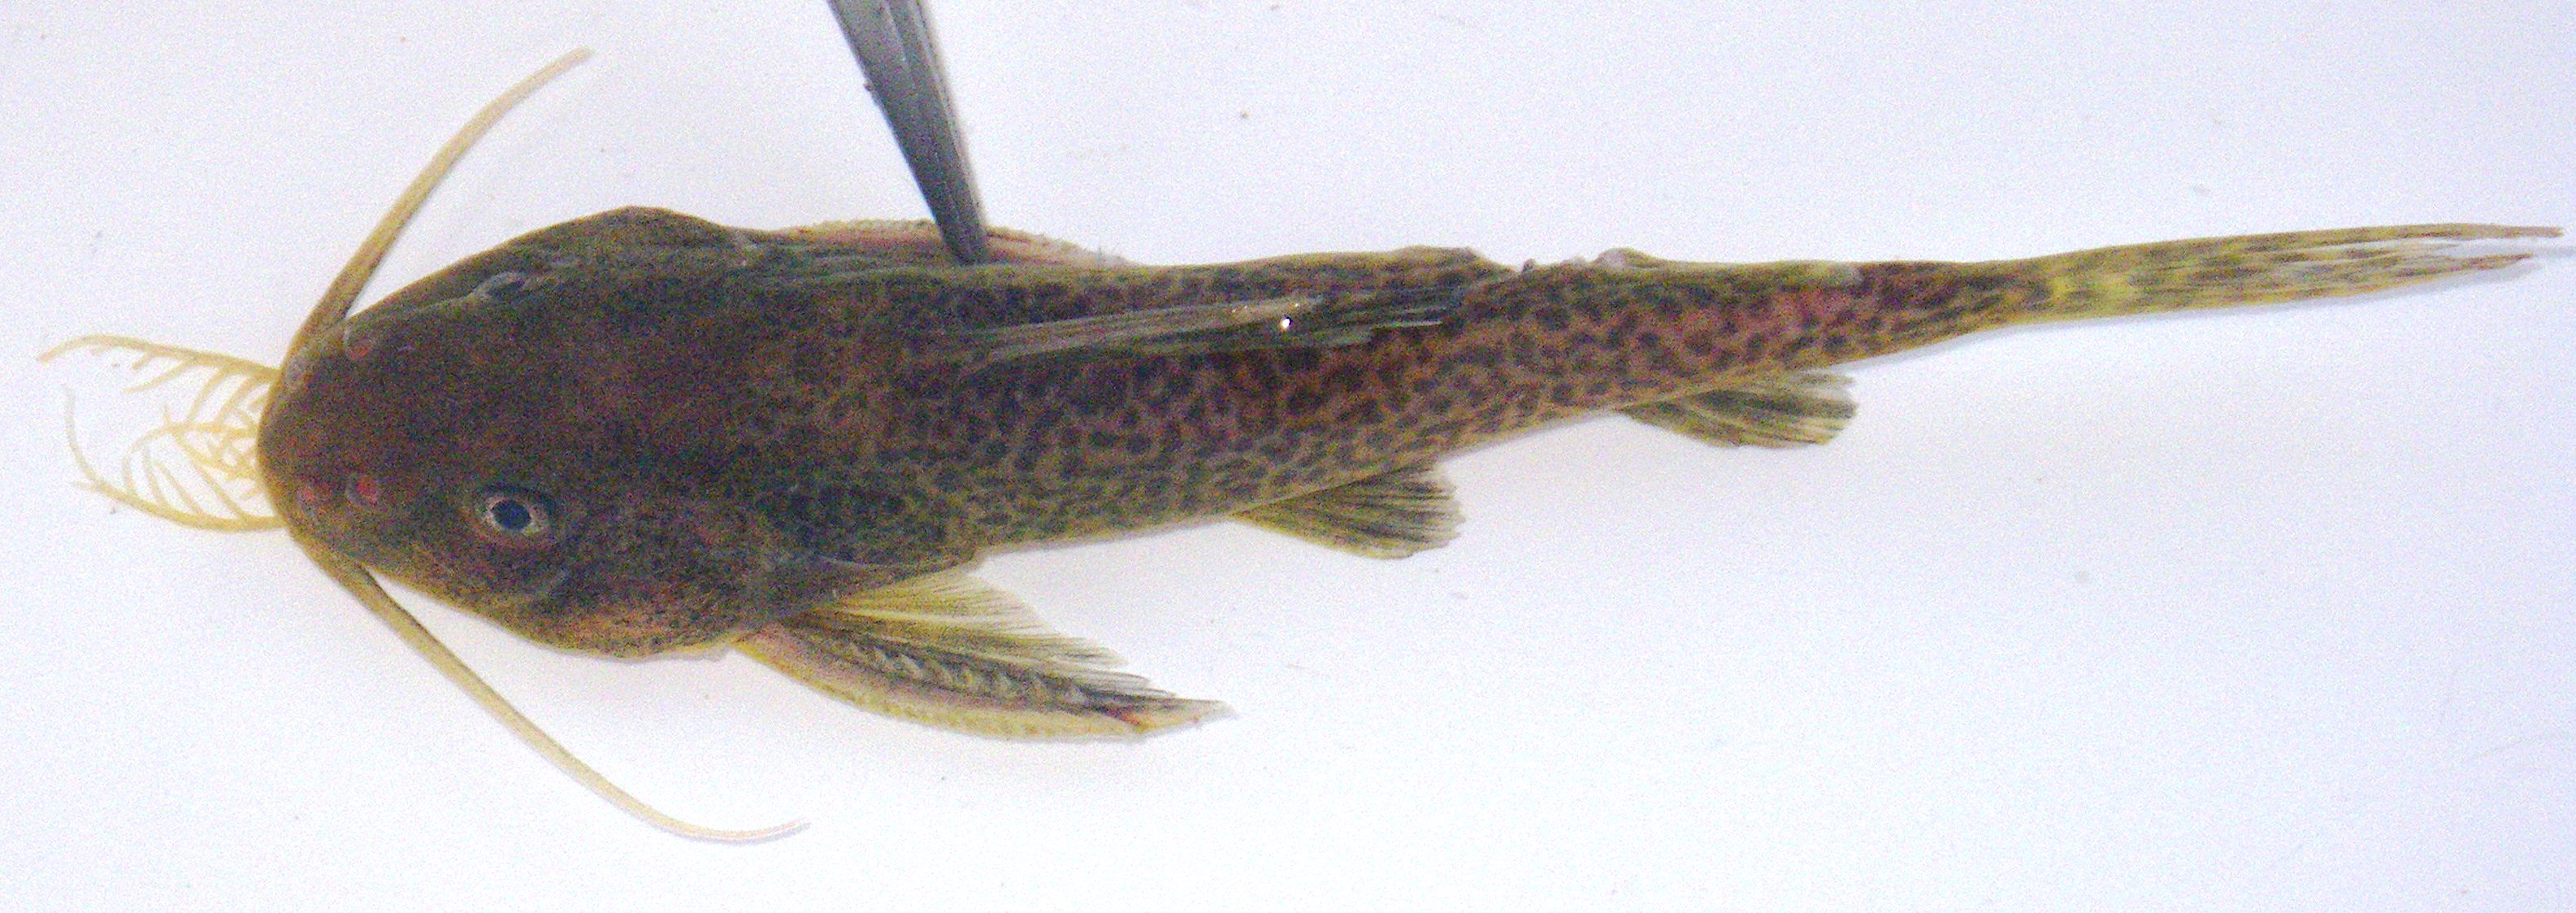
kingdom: Animalia
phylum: Chordata
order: Siluriformes
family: Mochokidae
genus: Synodontis
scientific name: Synodontis nigromaculatus
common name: Blackspotted squeaker
